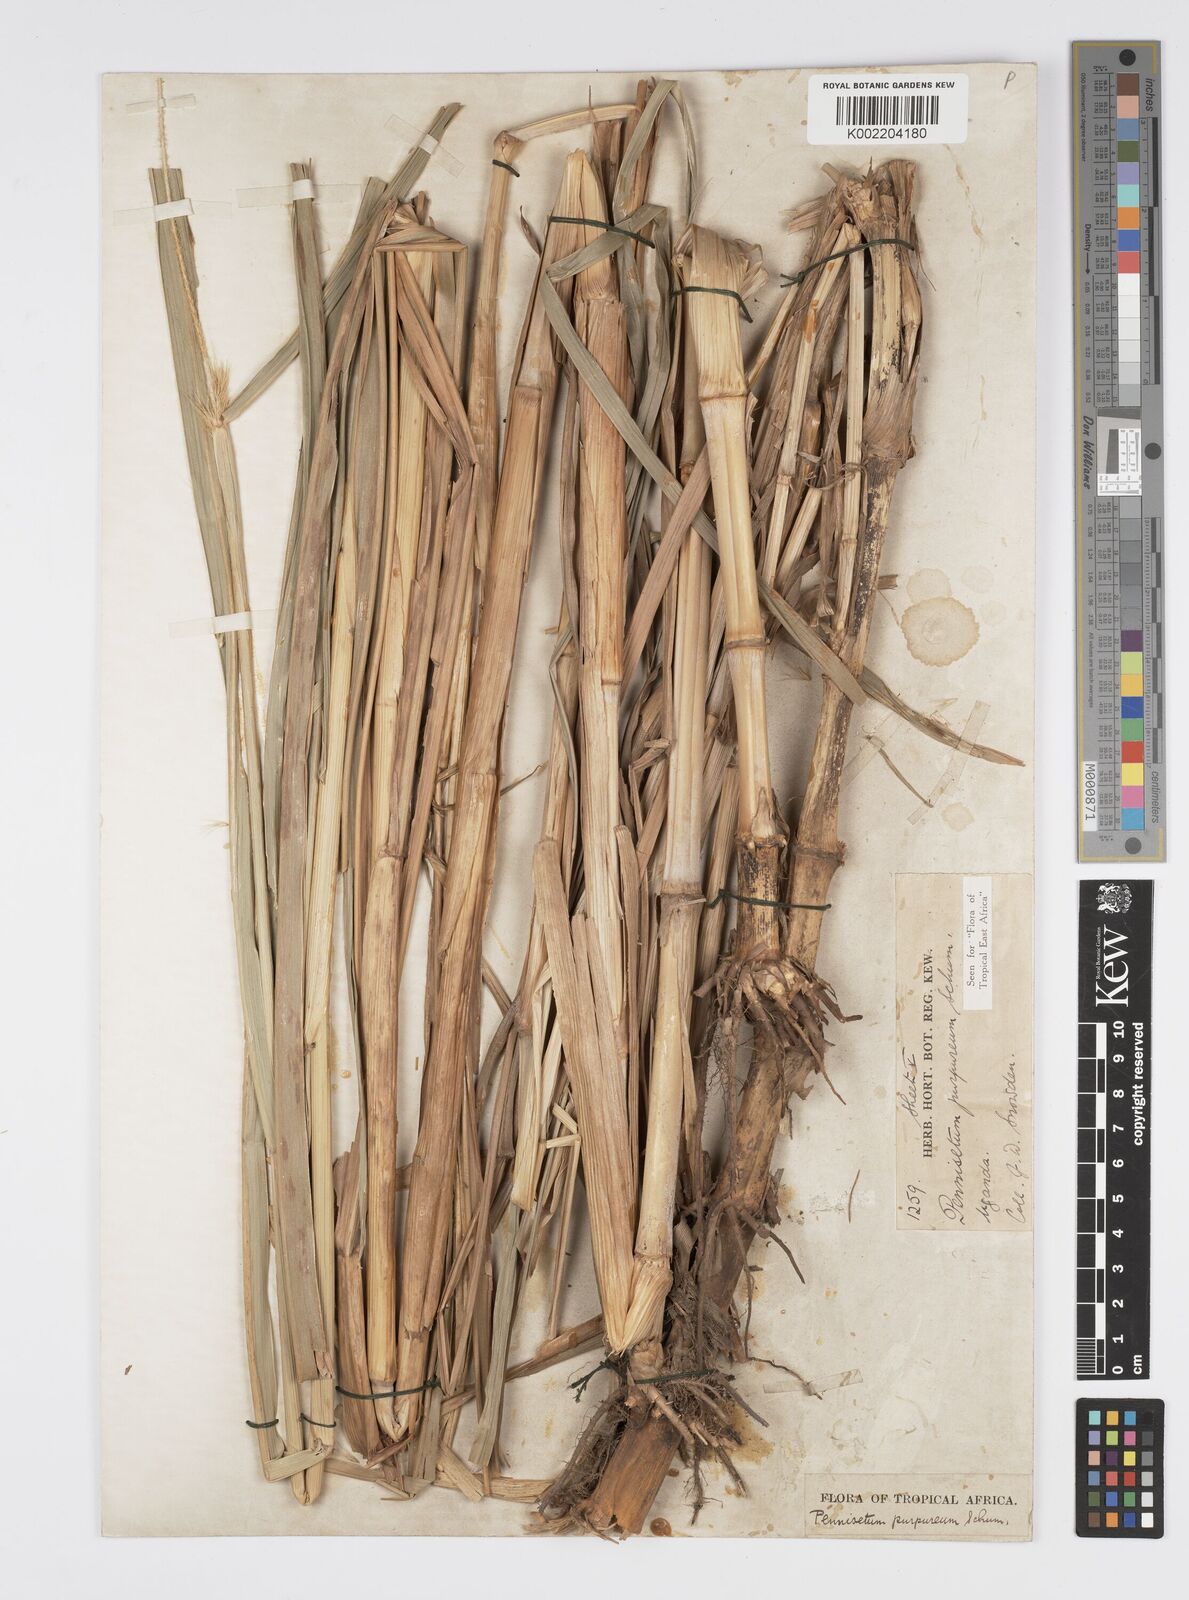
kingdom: Plantae
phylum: Tracheophyta
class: Liliopsida
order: Poales
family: Poaceae
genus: Cenchrus
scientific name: Cenchrus purpureus
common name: Elephant grass
